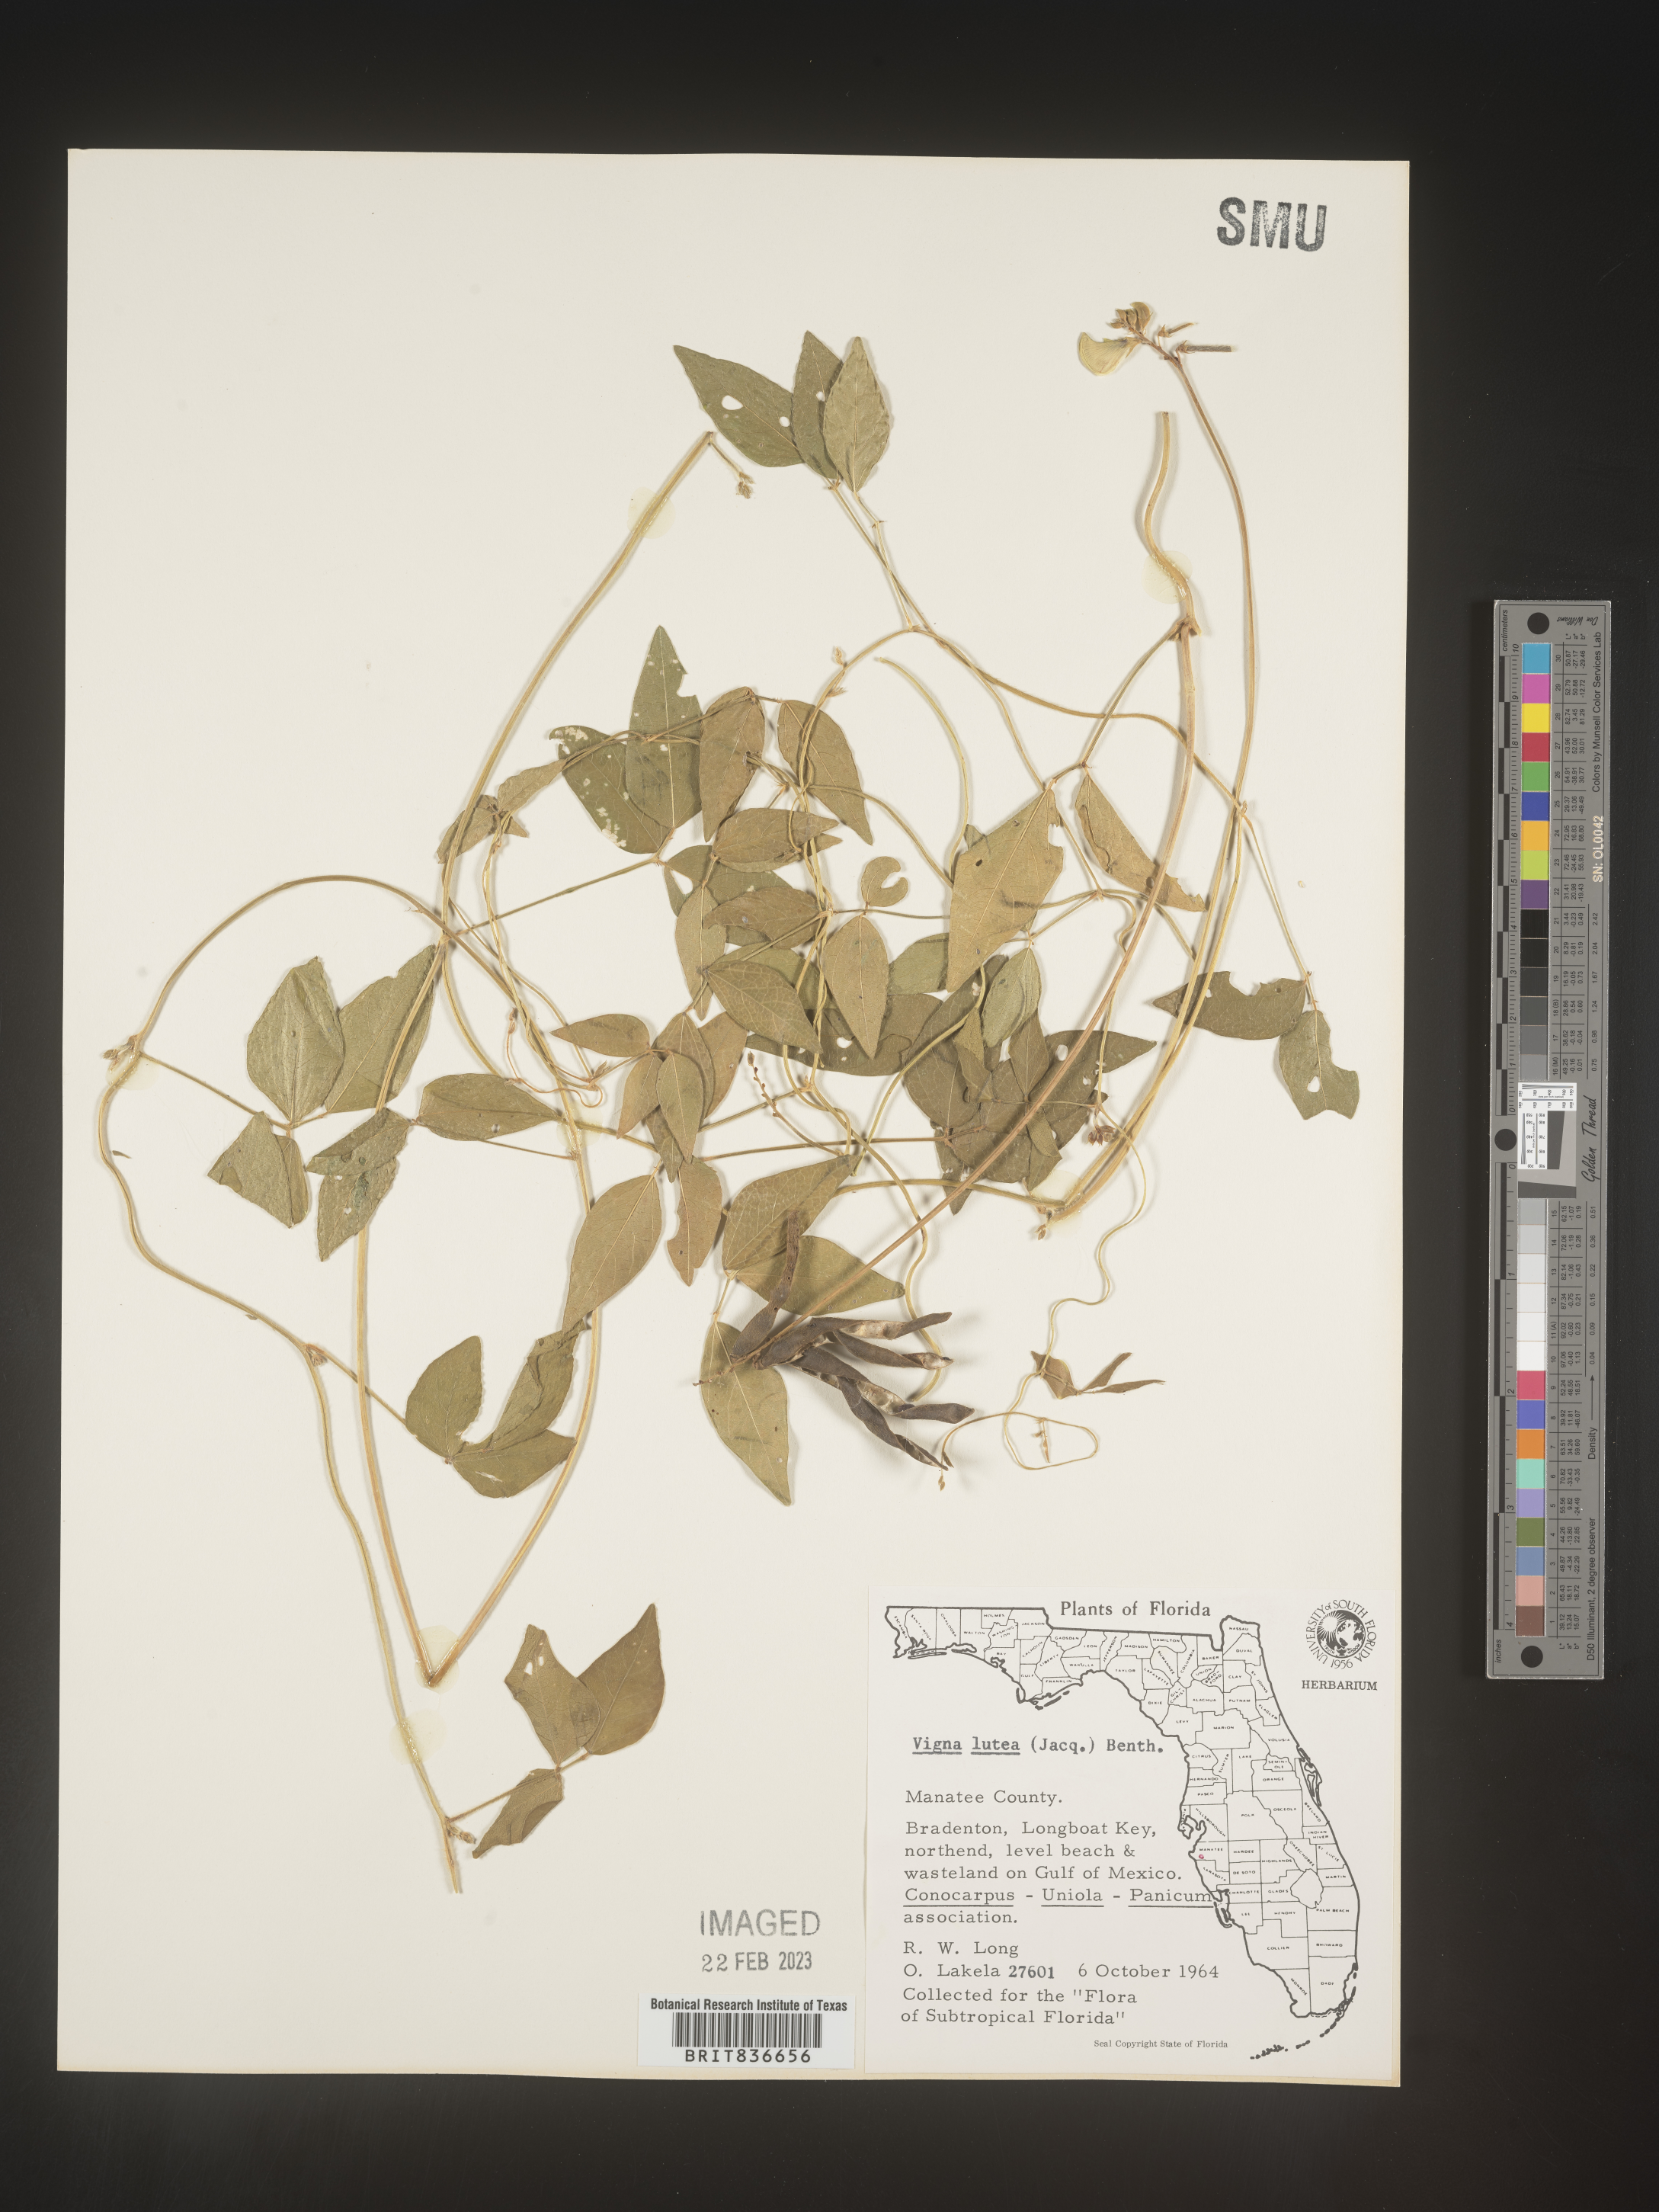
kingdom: Plantae
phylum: Tracheophyta
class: Magnoliopsida
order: Fabales
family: Fabaceae
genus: Vigna
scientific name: Vigna luteola
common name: Hairypod cowpea
